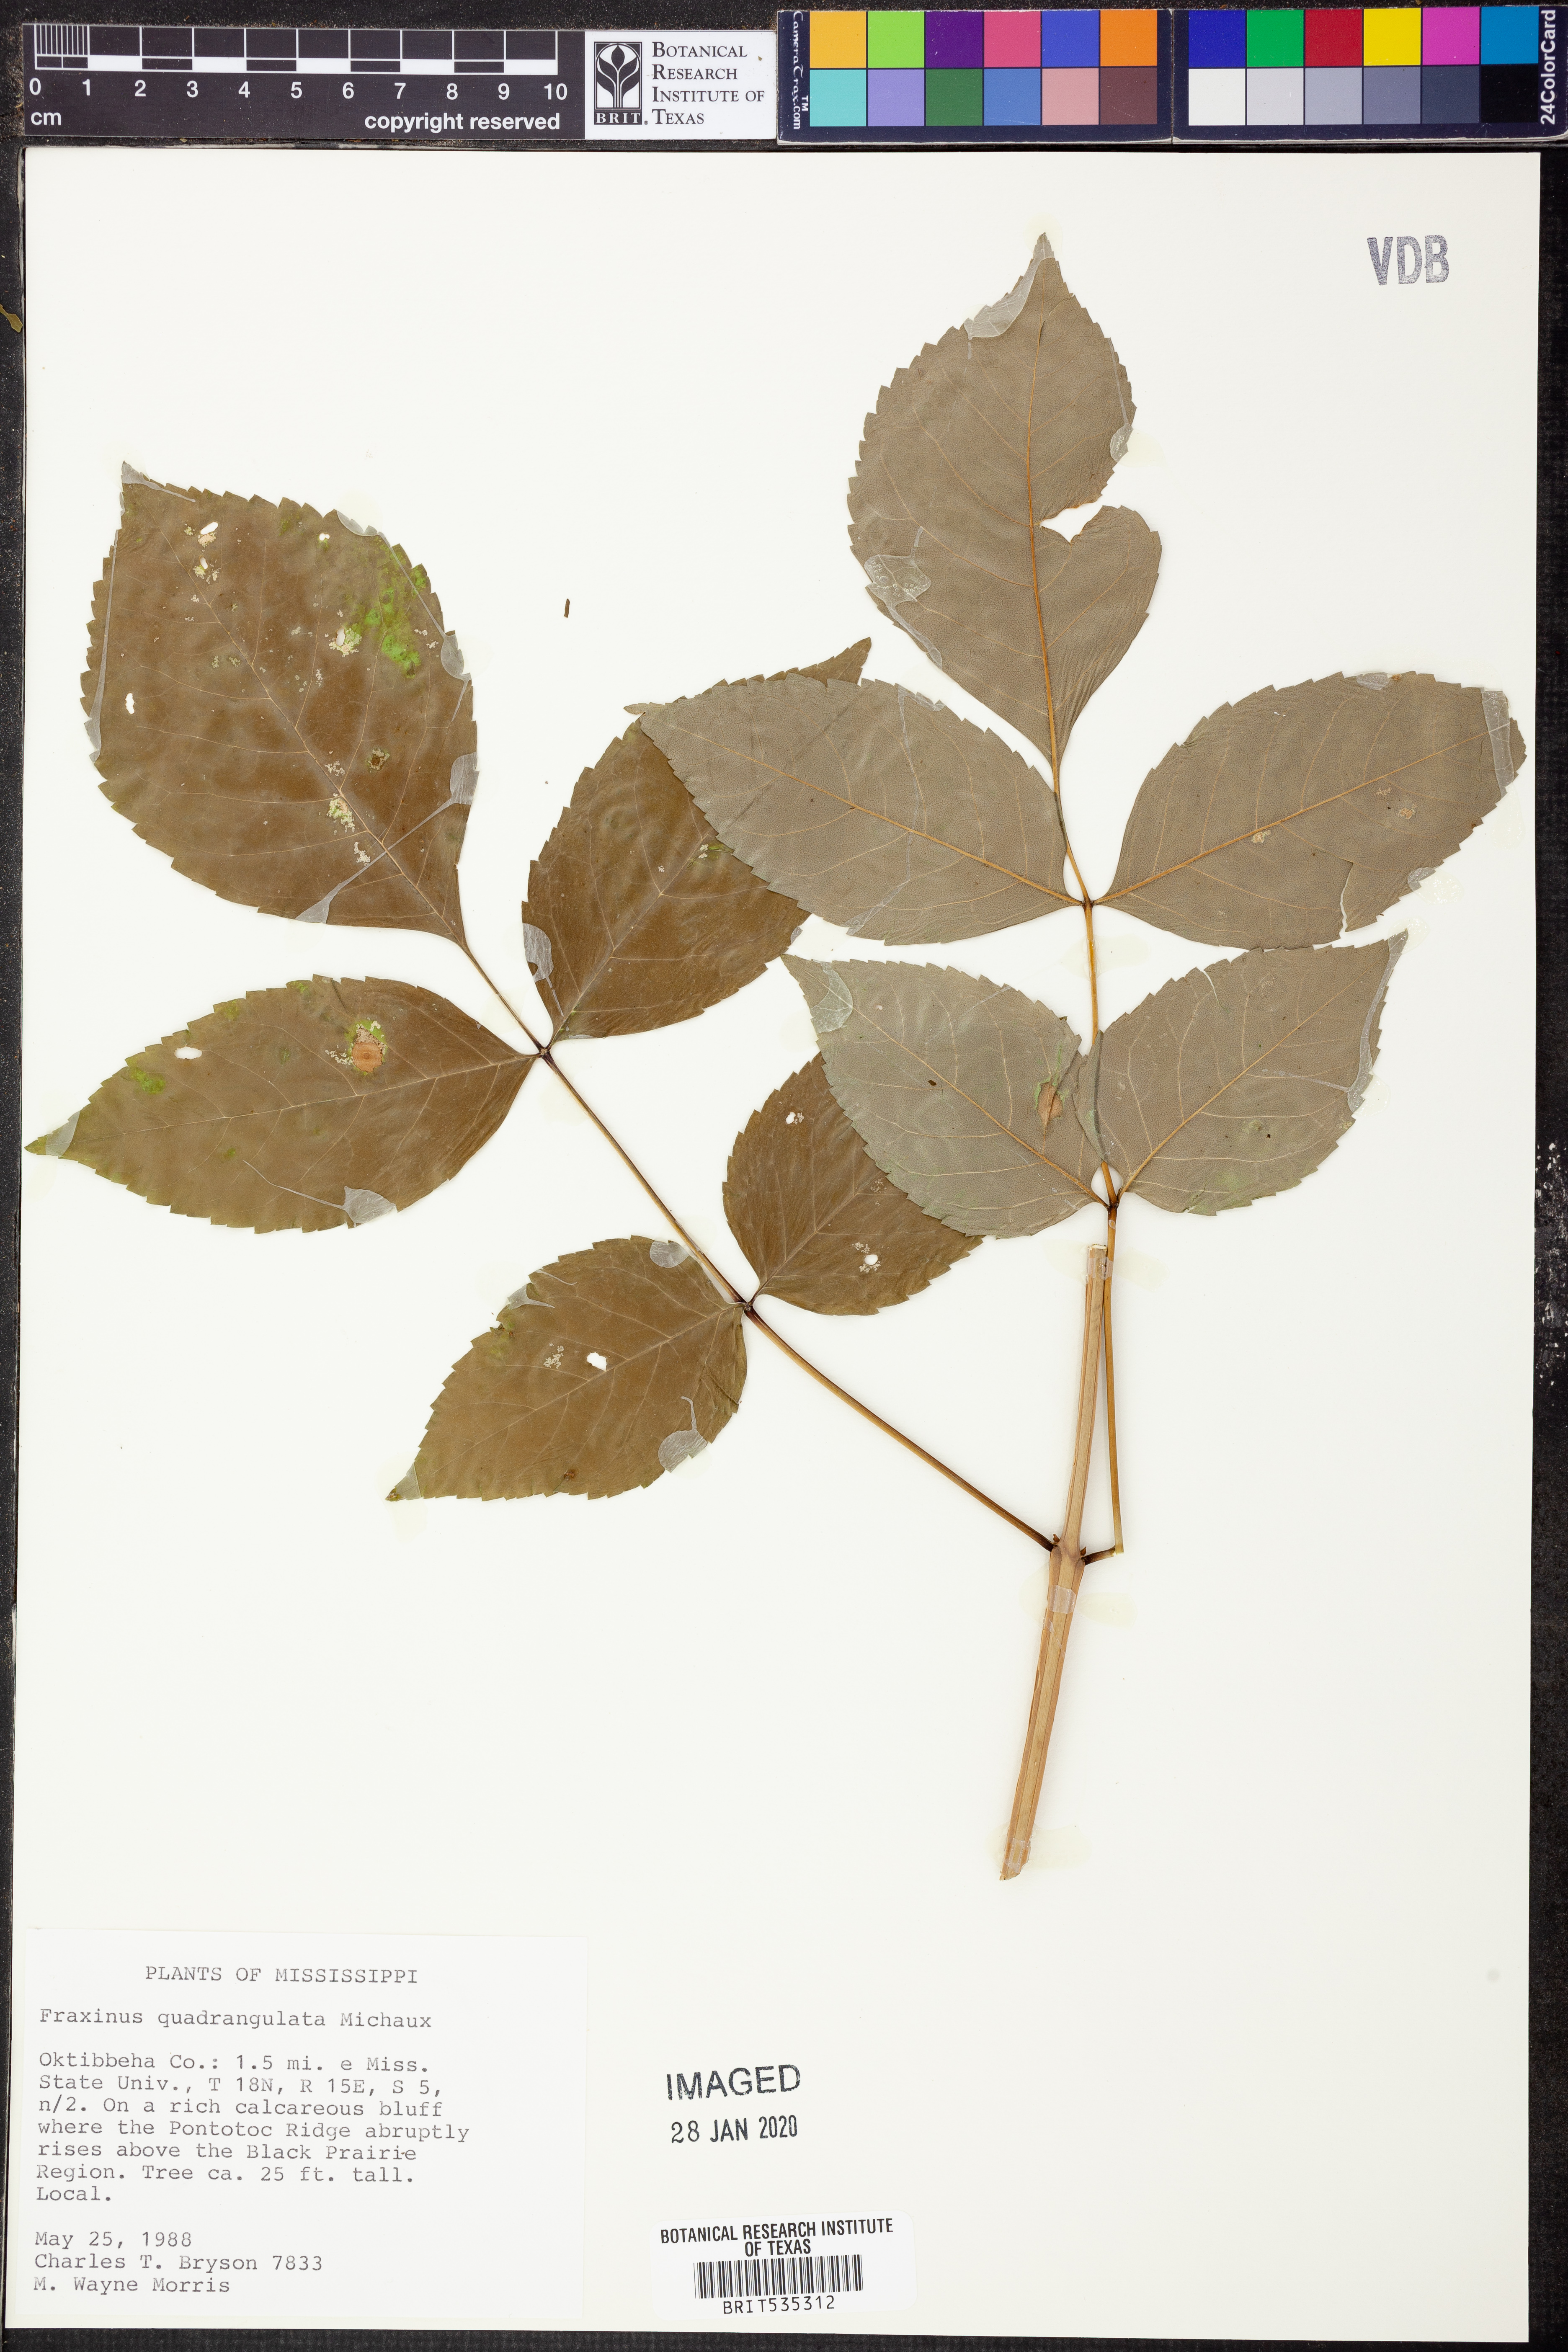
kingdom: Plantae
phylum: Tracheophyta
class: Magnoliopsida
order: Lamiales
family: Oleaceae
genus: Fraxinus
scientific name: Fraxinus quadrangulata
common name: Blue ash
